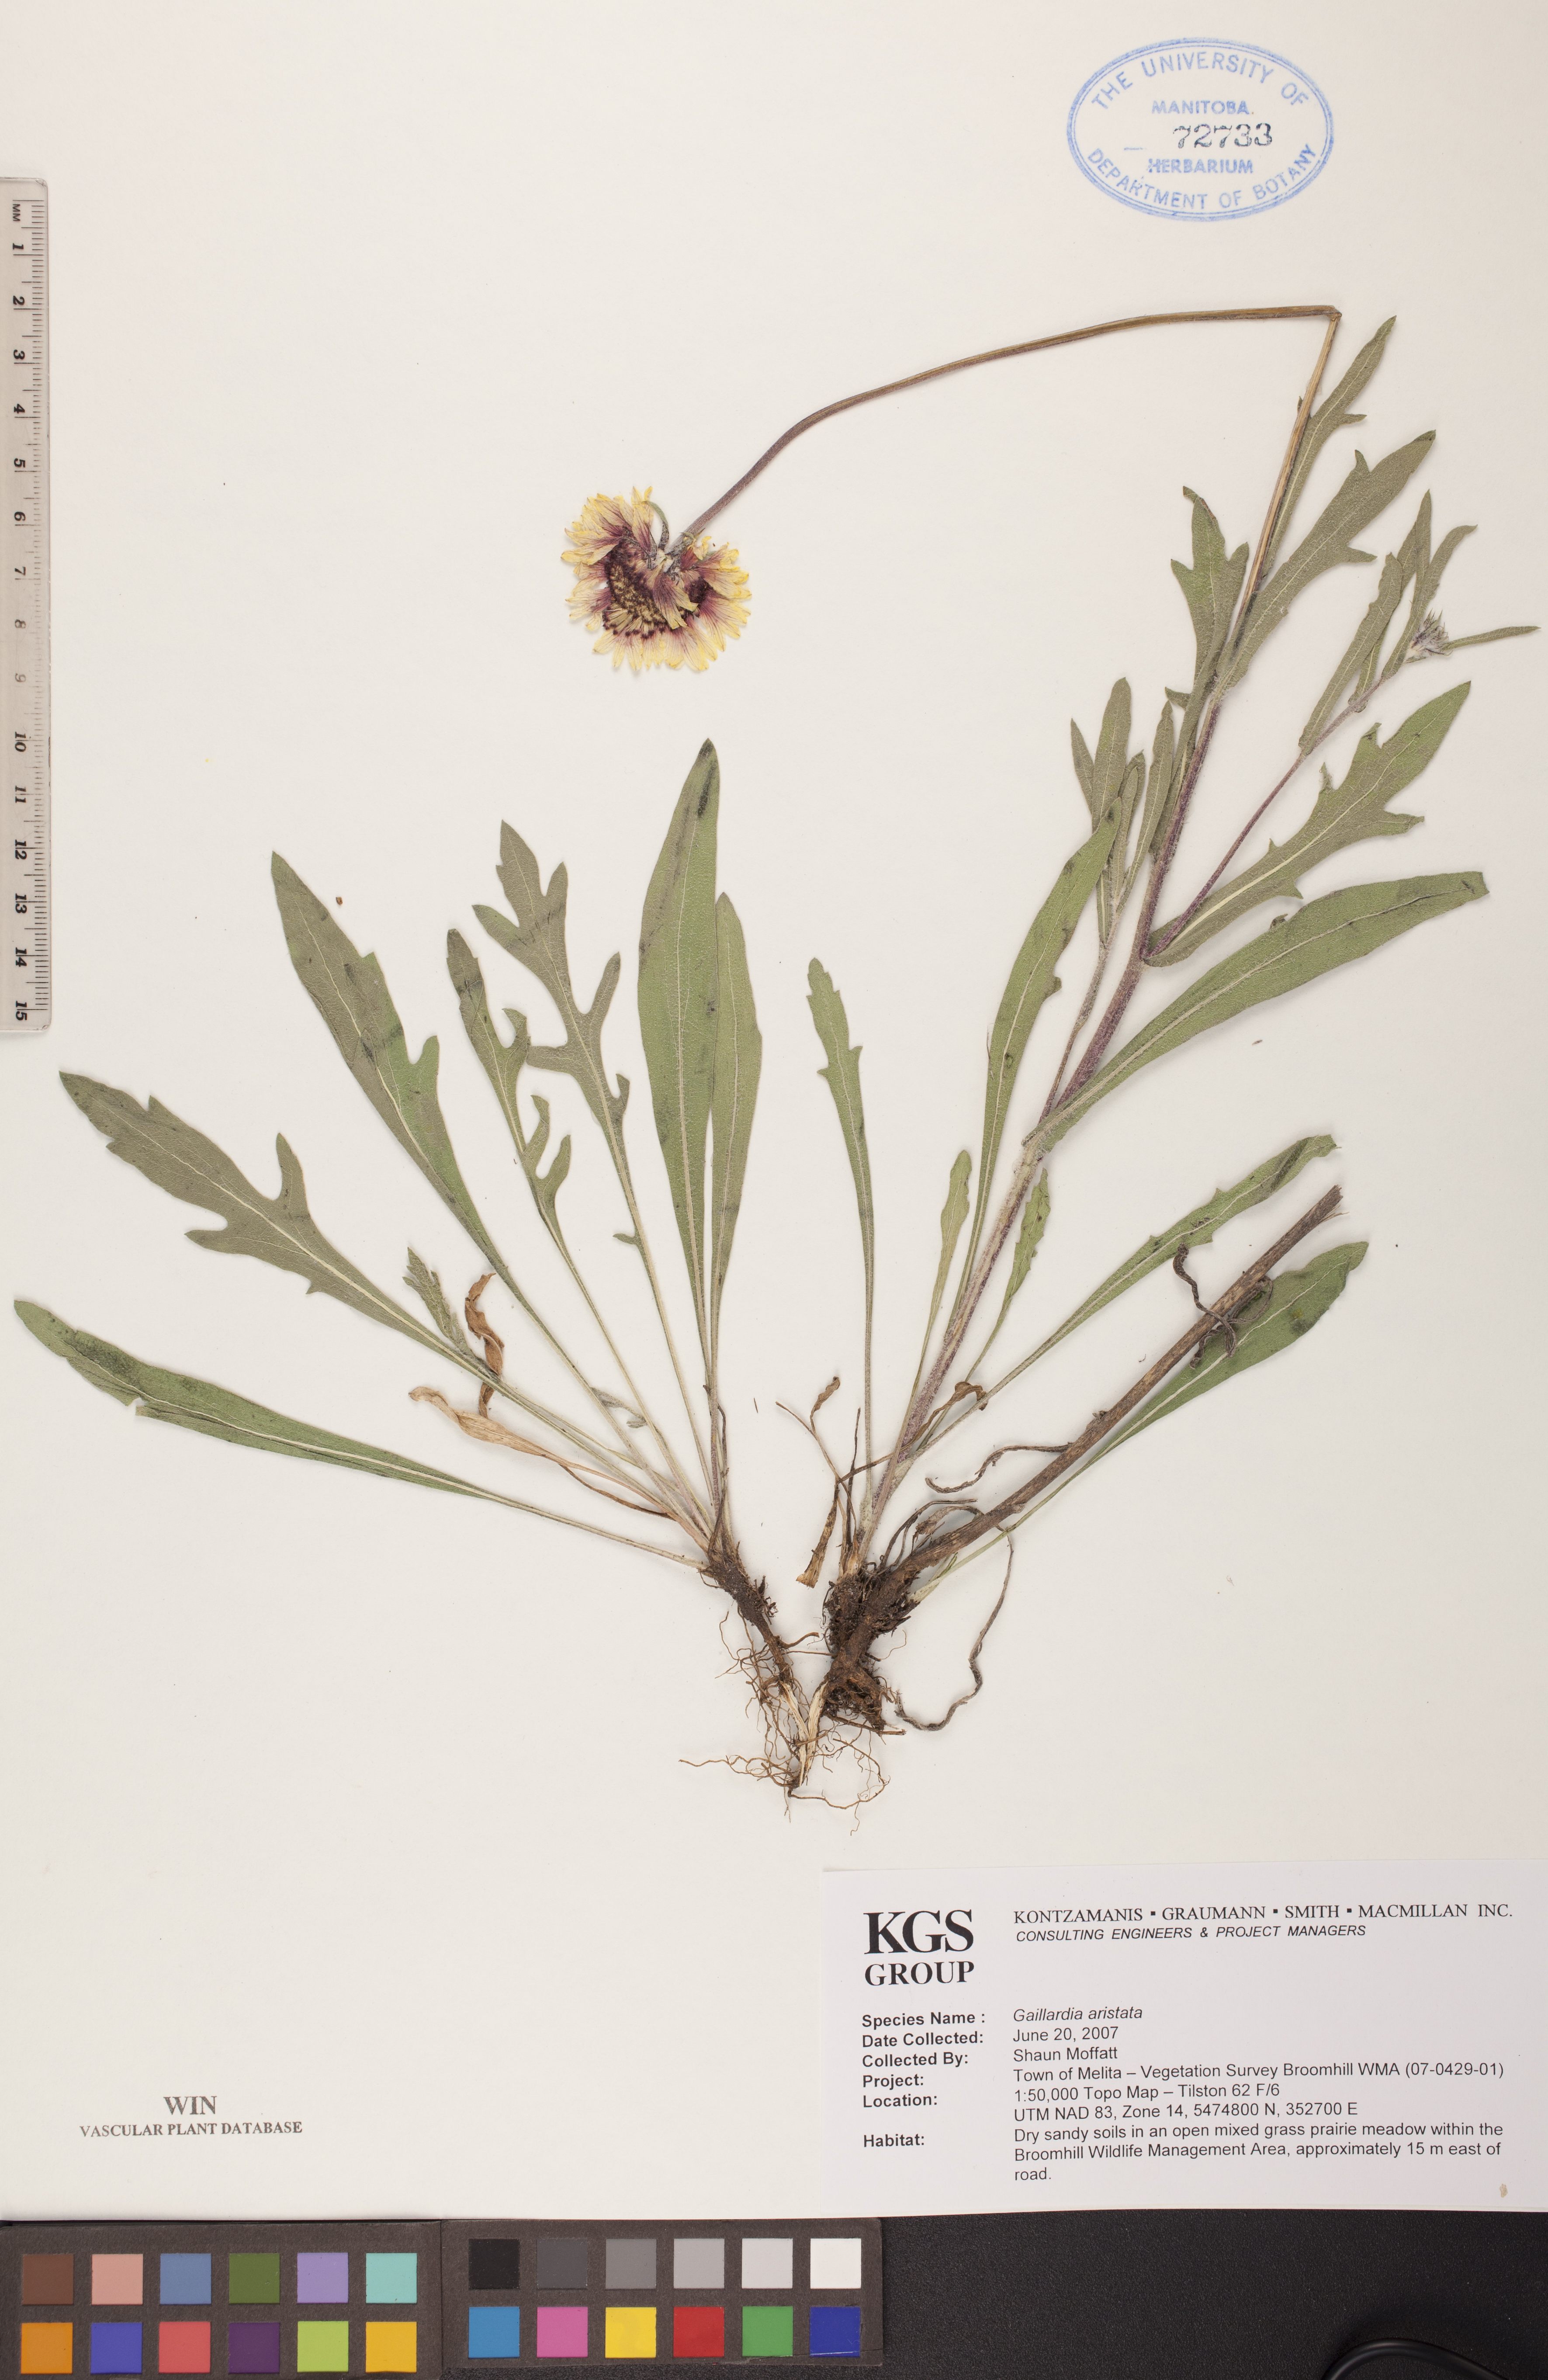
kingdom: Plantae
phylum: Tracheophyta
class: Magnoliopsida
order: Asterales
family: Asteraceae
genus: Gaillardia
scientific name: Gaillardia aristata
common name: Blanket-flower
